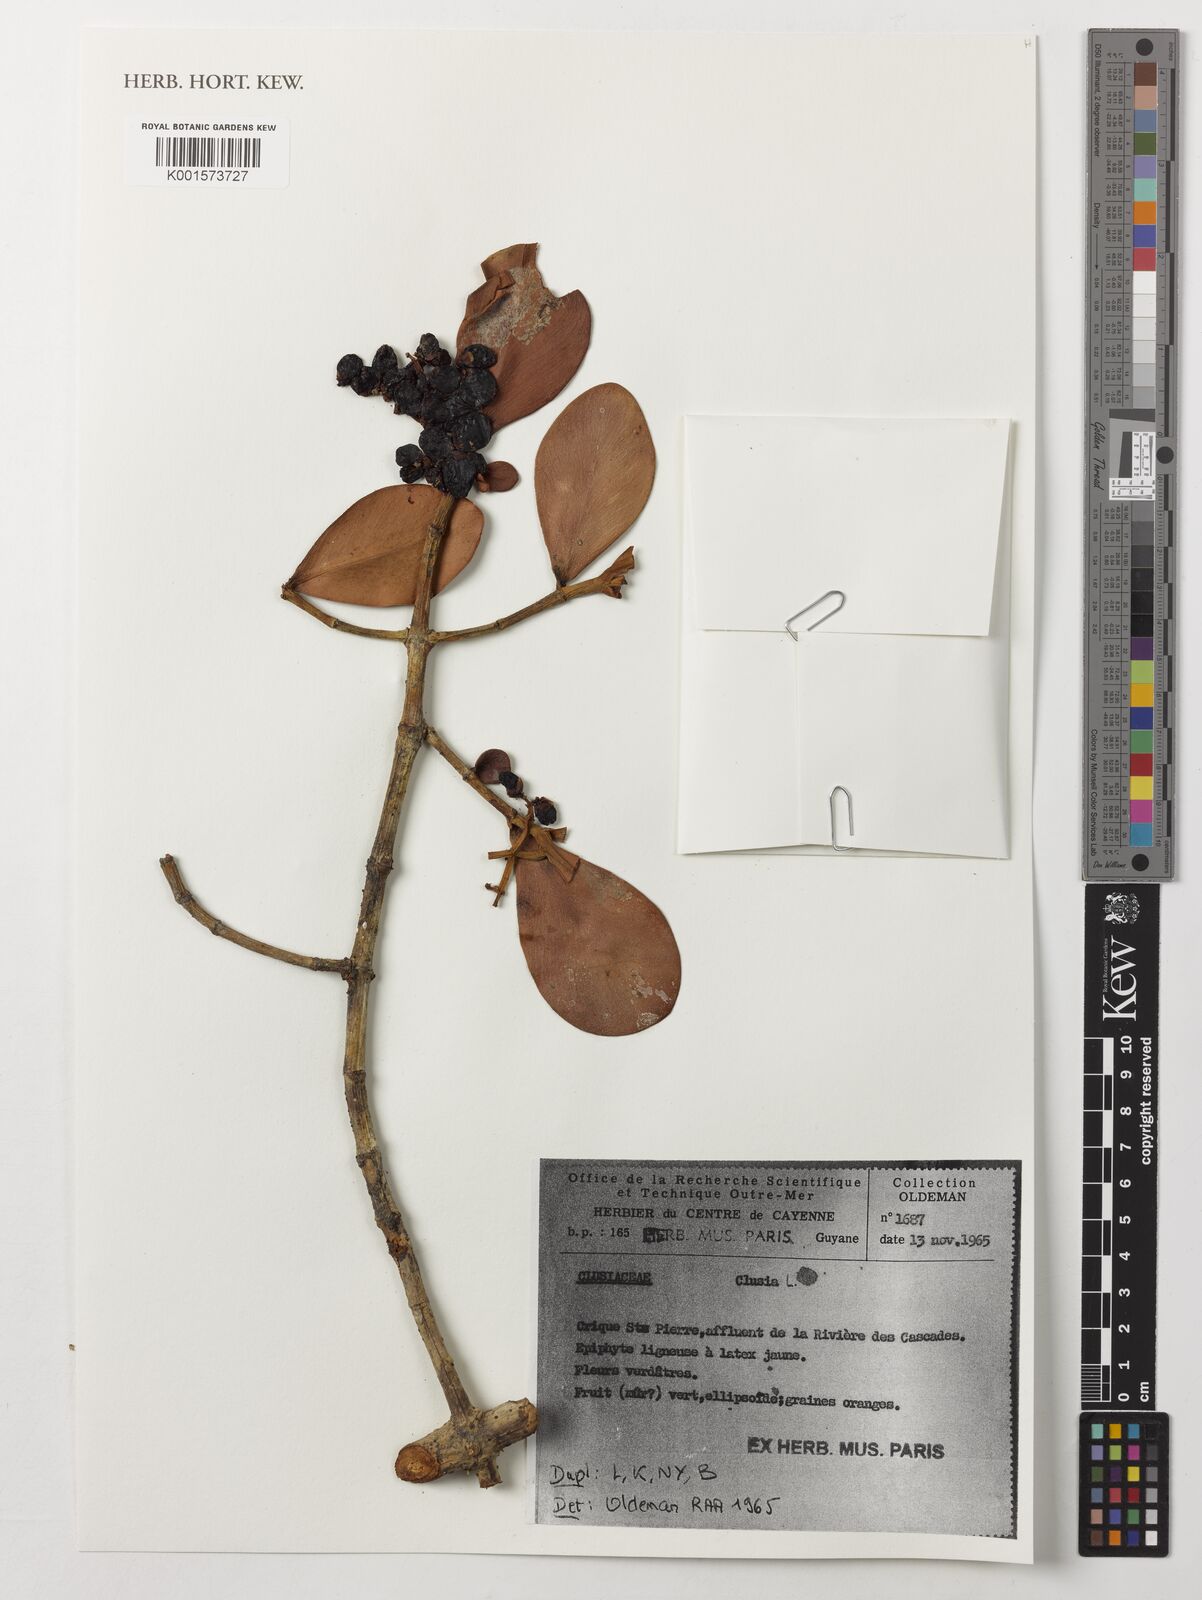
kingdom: Plantae
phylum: Tracheophyta
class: Magnoliopsida
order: Malpighiales
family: Clusiaceae
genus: Clusia
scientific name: Clusia
